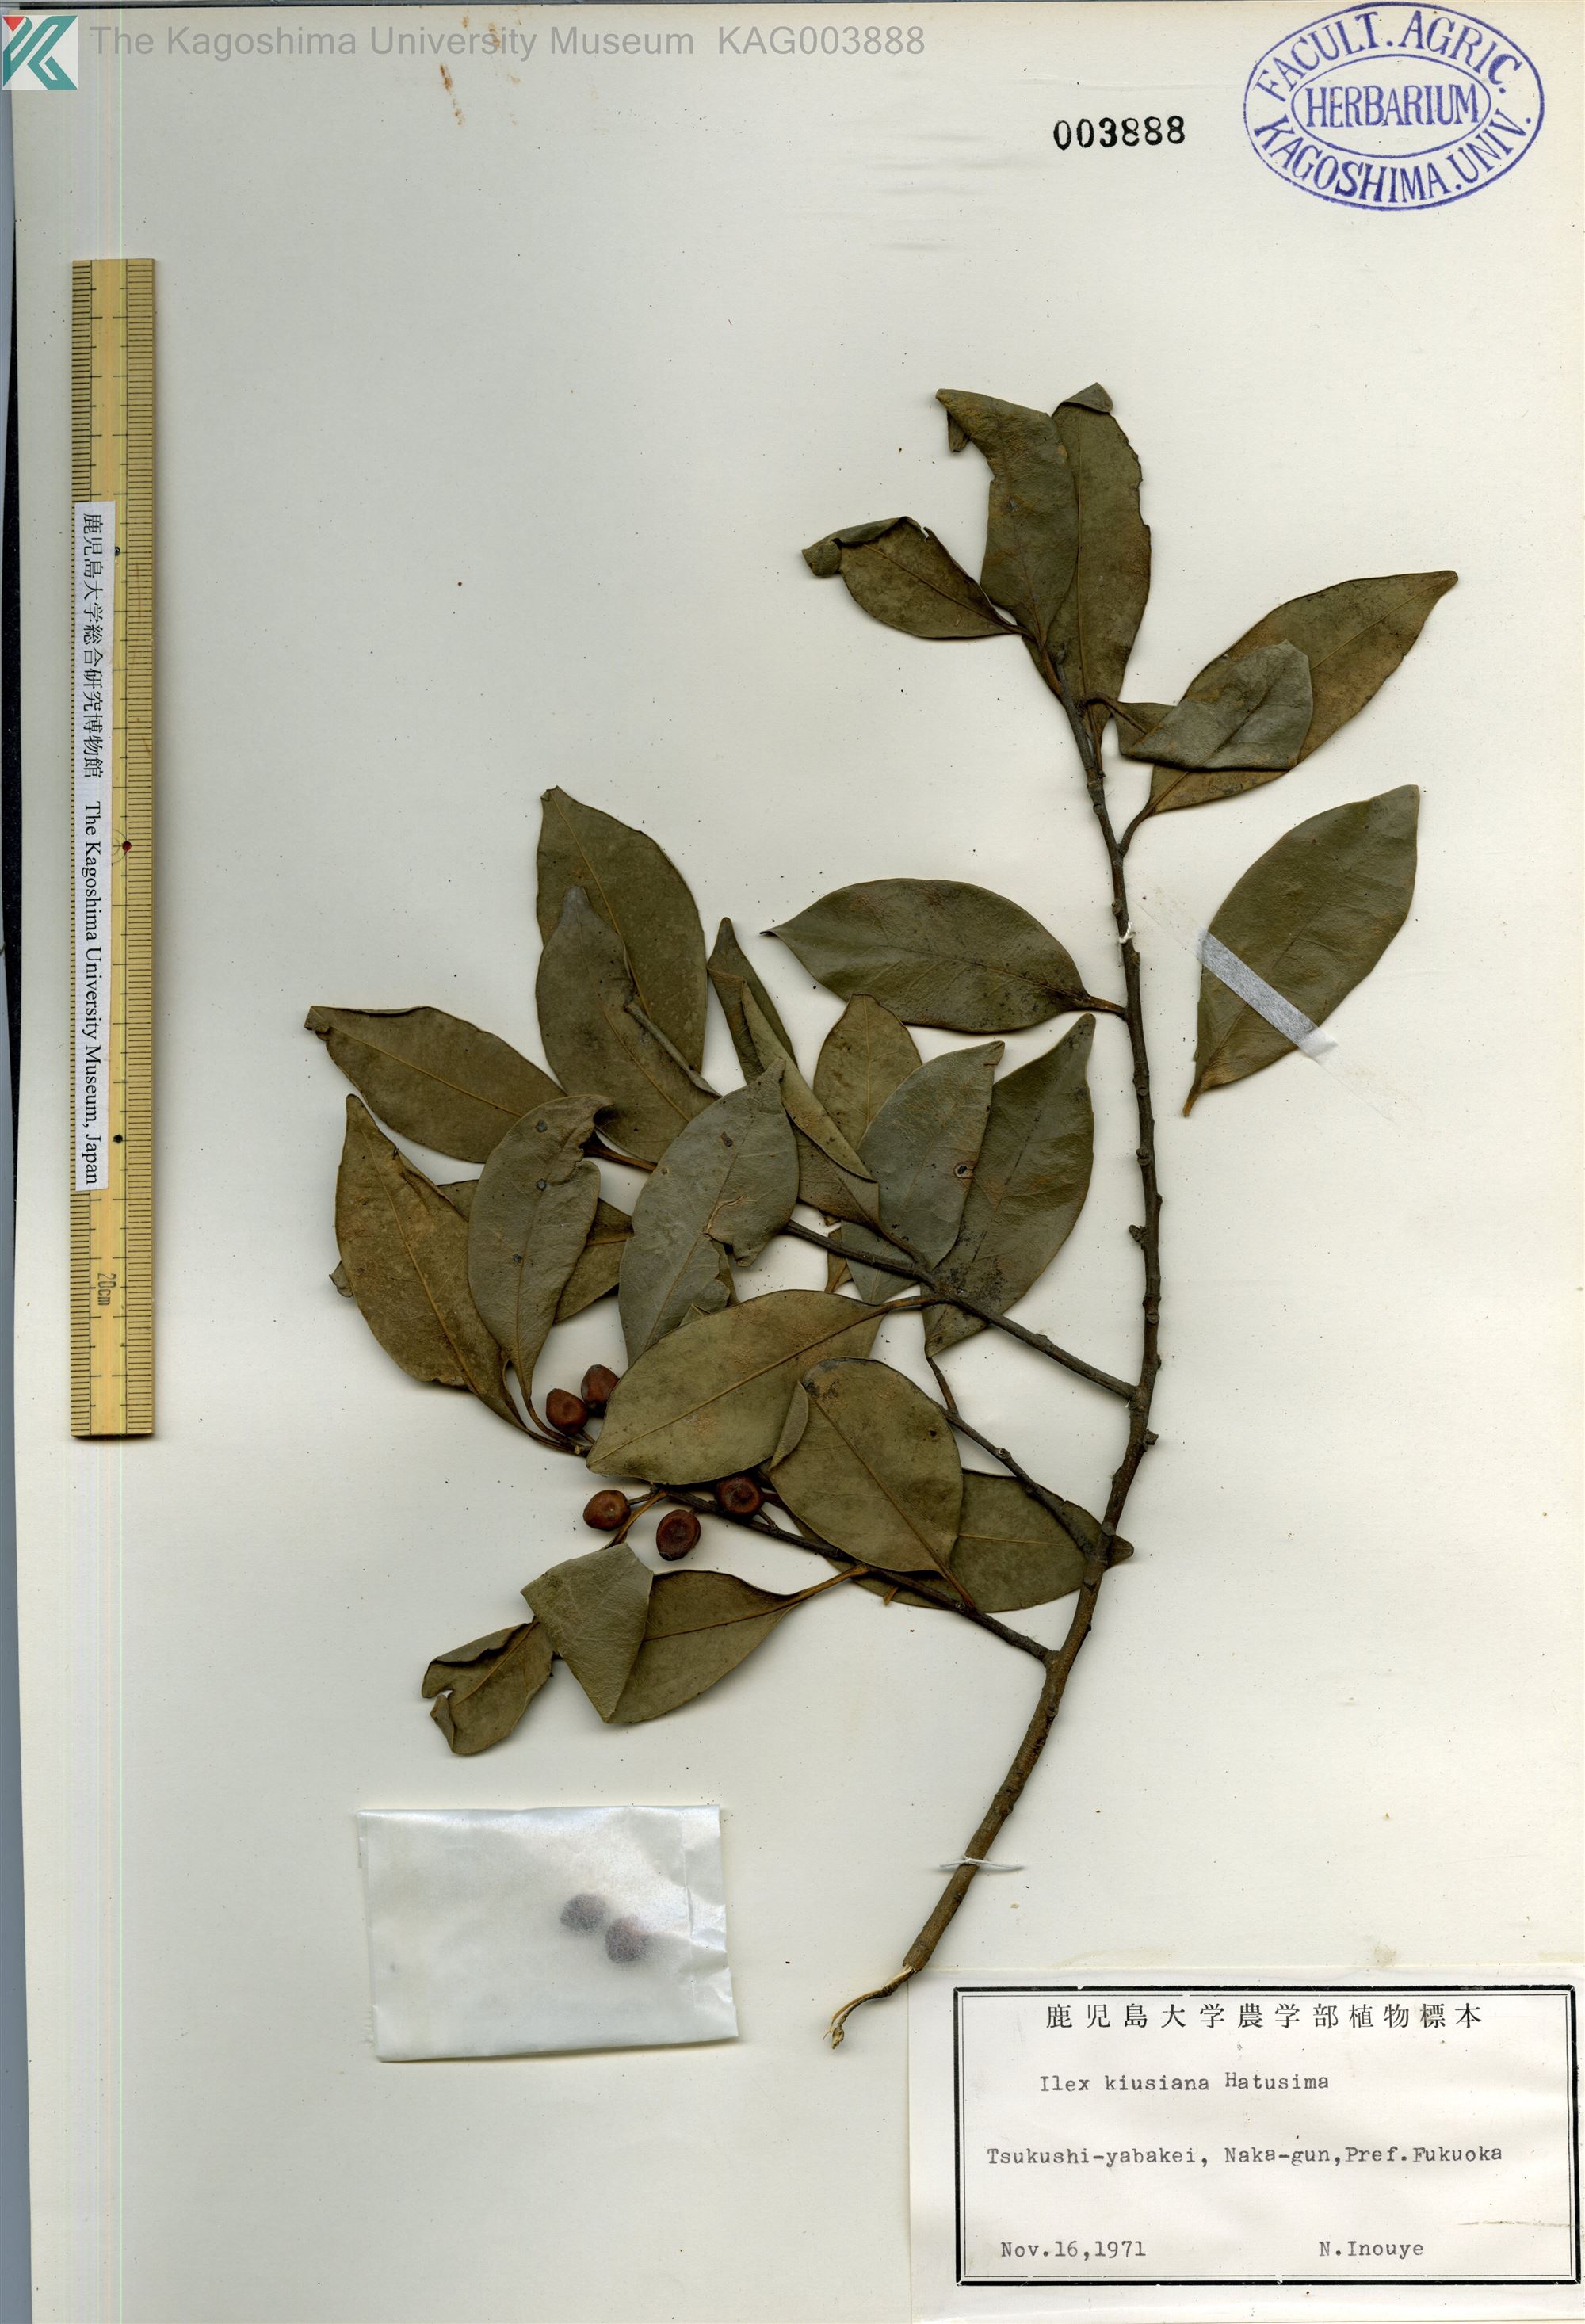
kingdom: Plantae
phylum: Tracheophyta
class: Magnoliopsida
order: Aquifoliales
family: Aquifoliaceae
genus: Ilex
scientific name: Ilex kiusiana
